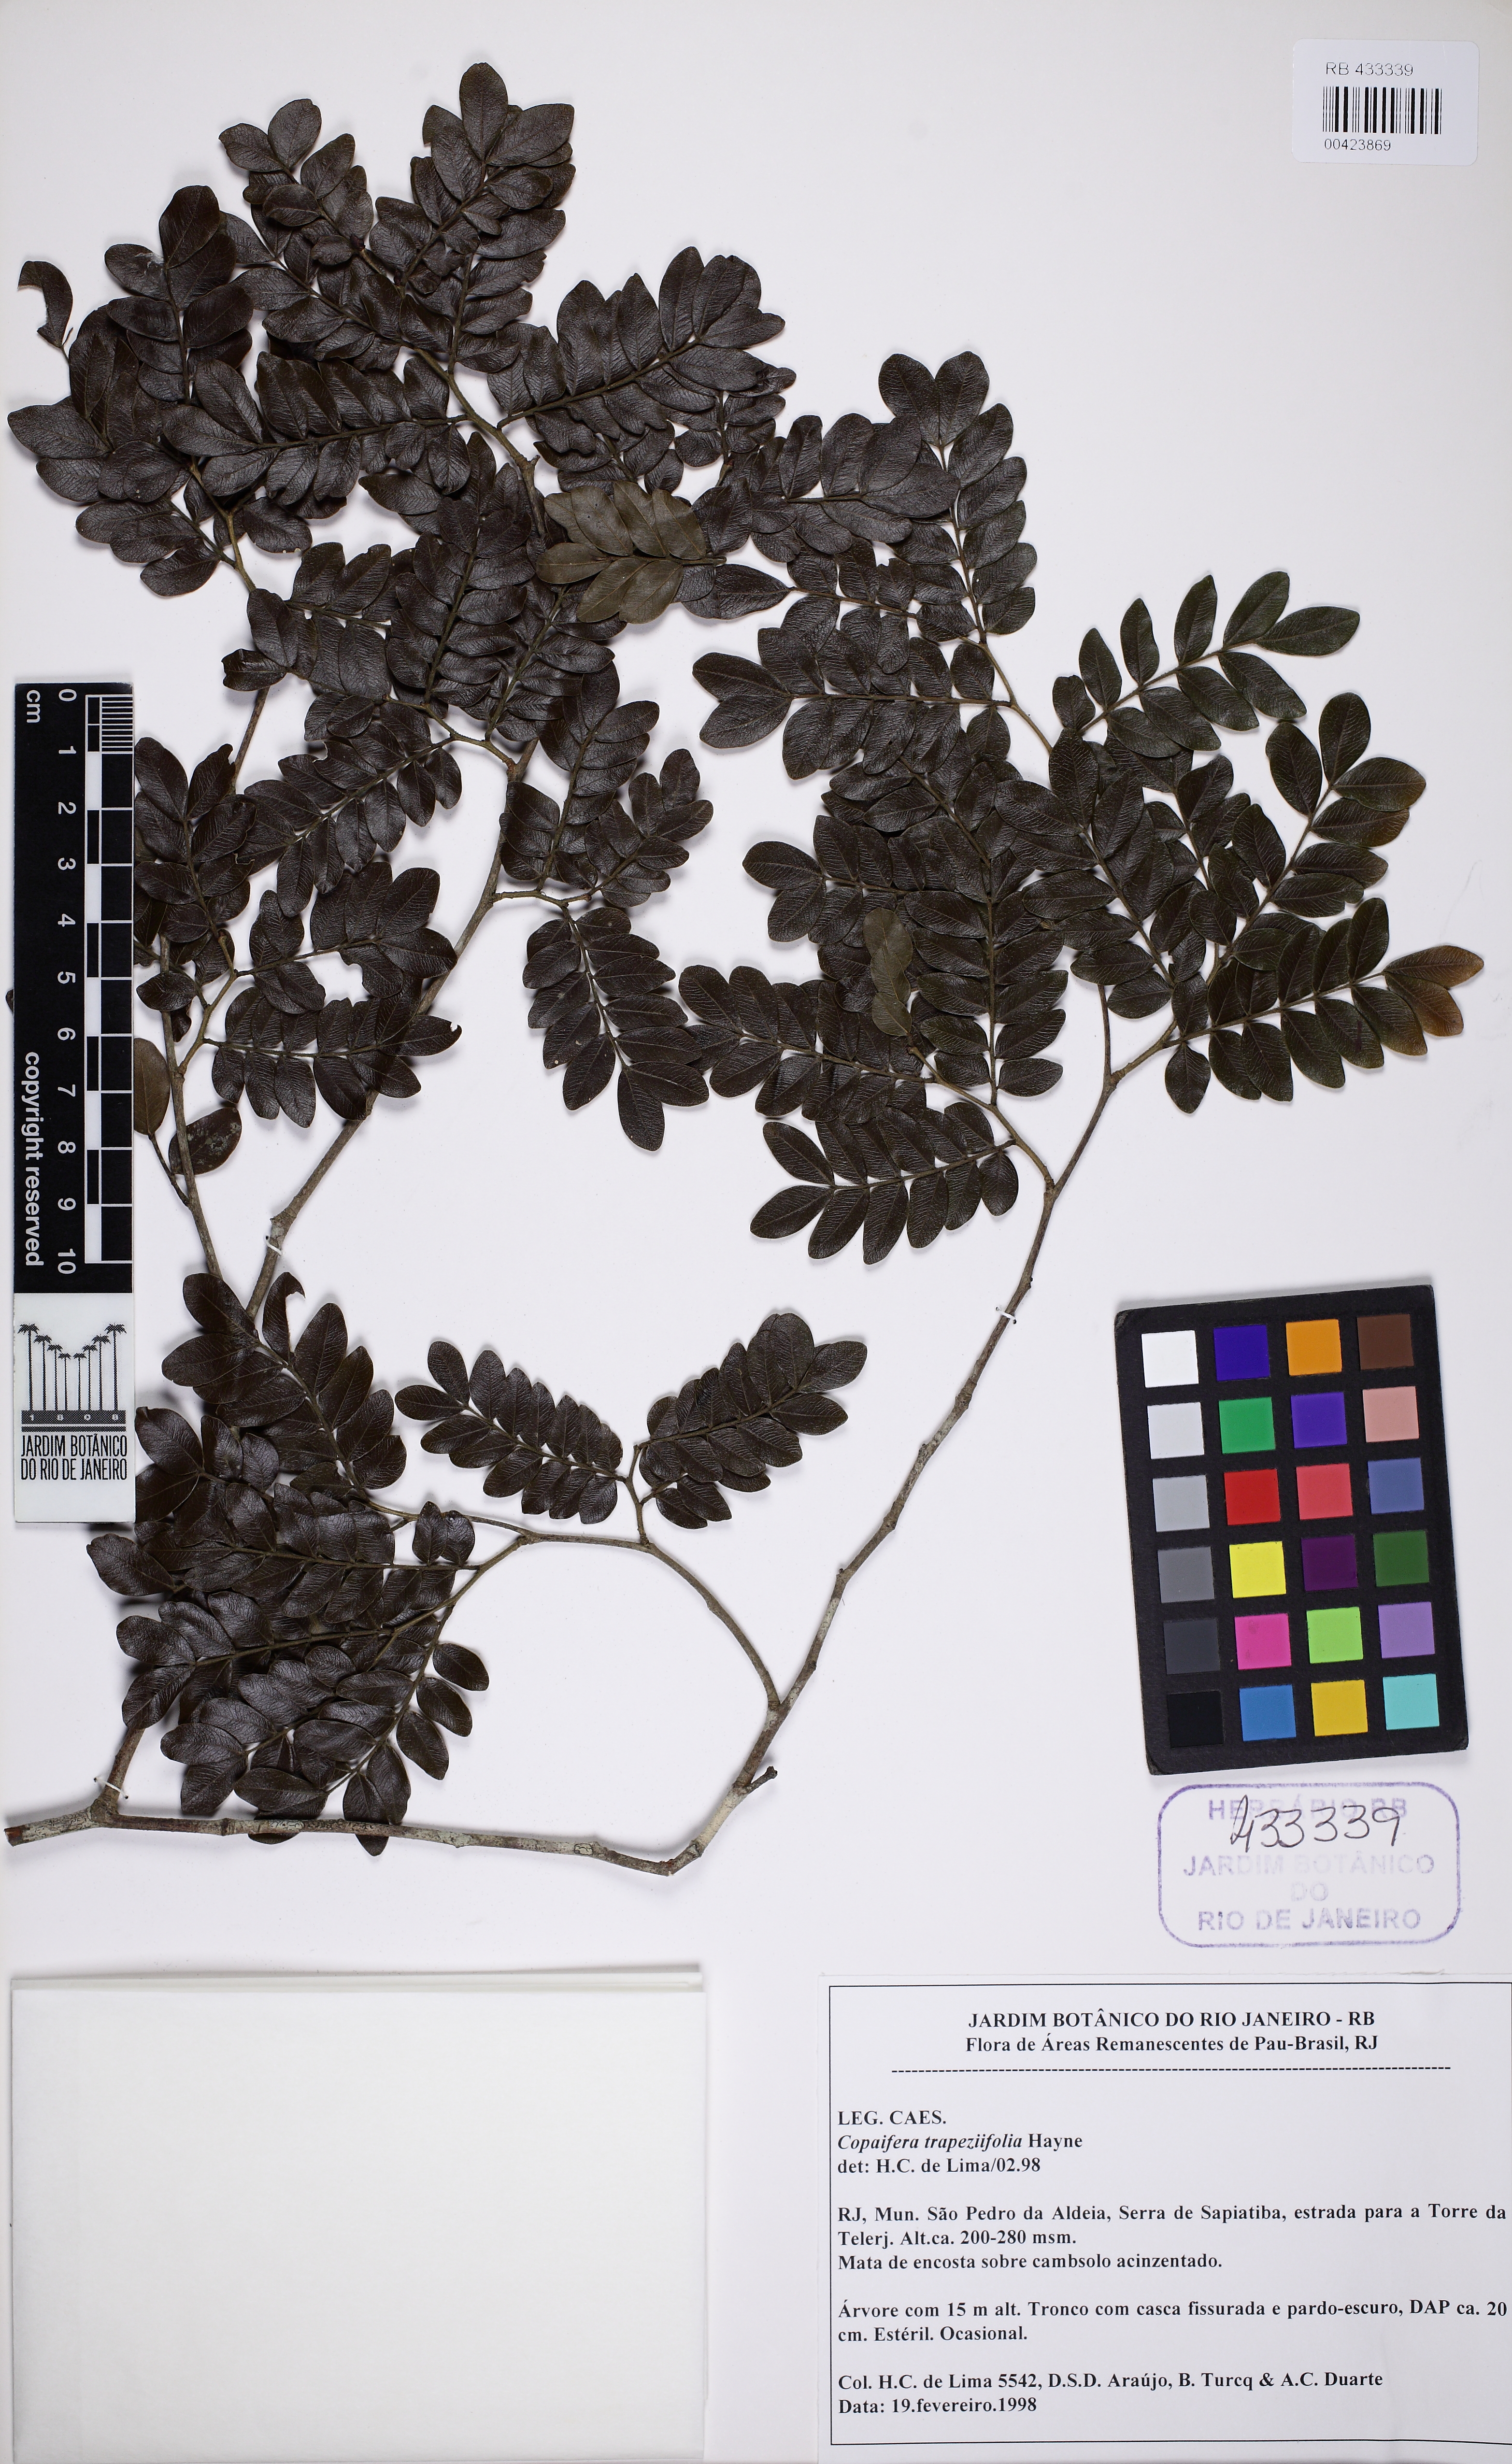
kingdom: Plantae
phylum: Tracheophyta
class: Magnoliopsida
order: Fabales
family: Fabaceae
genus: Copaifera
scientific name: Copaifera trapezifolia
